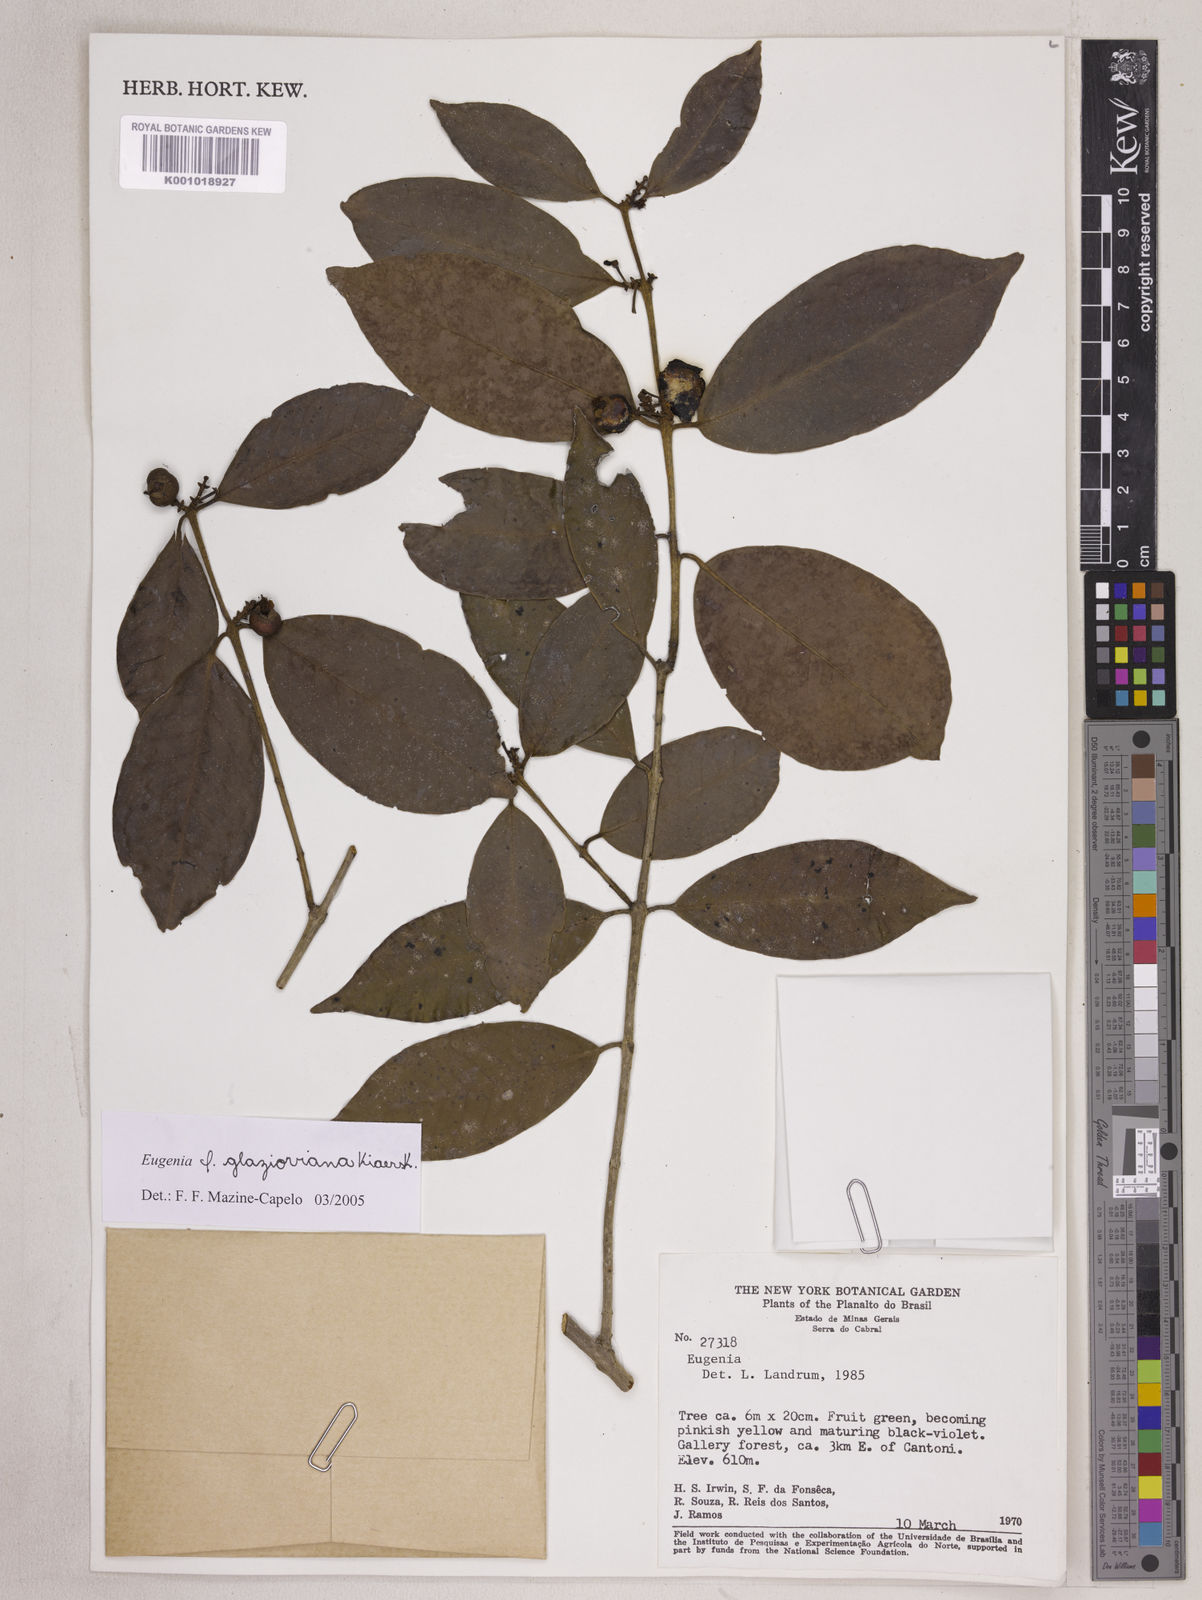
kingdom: Plantae
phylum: Tracheophyta
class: Magnoliopsida
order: Myrtales
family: Myrtaceae
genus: Eugenia
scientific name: Eugenia francavilleana
